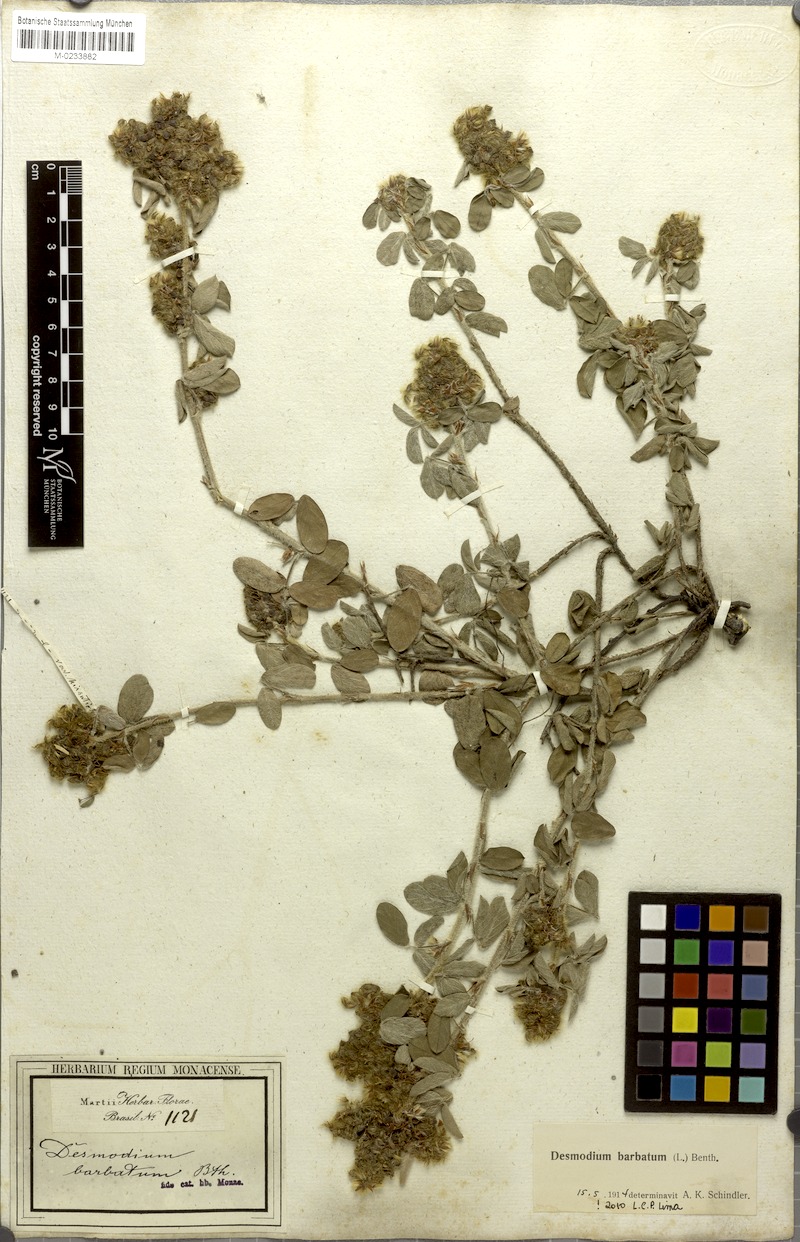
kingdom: Plantae
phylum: Tracheophyta
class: Magnoliopsida
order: Fabales
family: Fabaceae
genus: Grona
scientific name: Grona barbata
